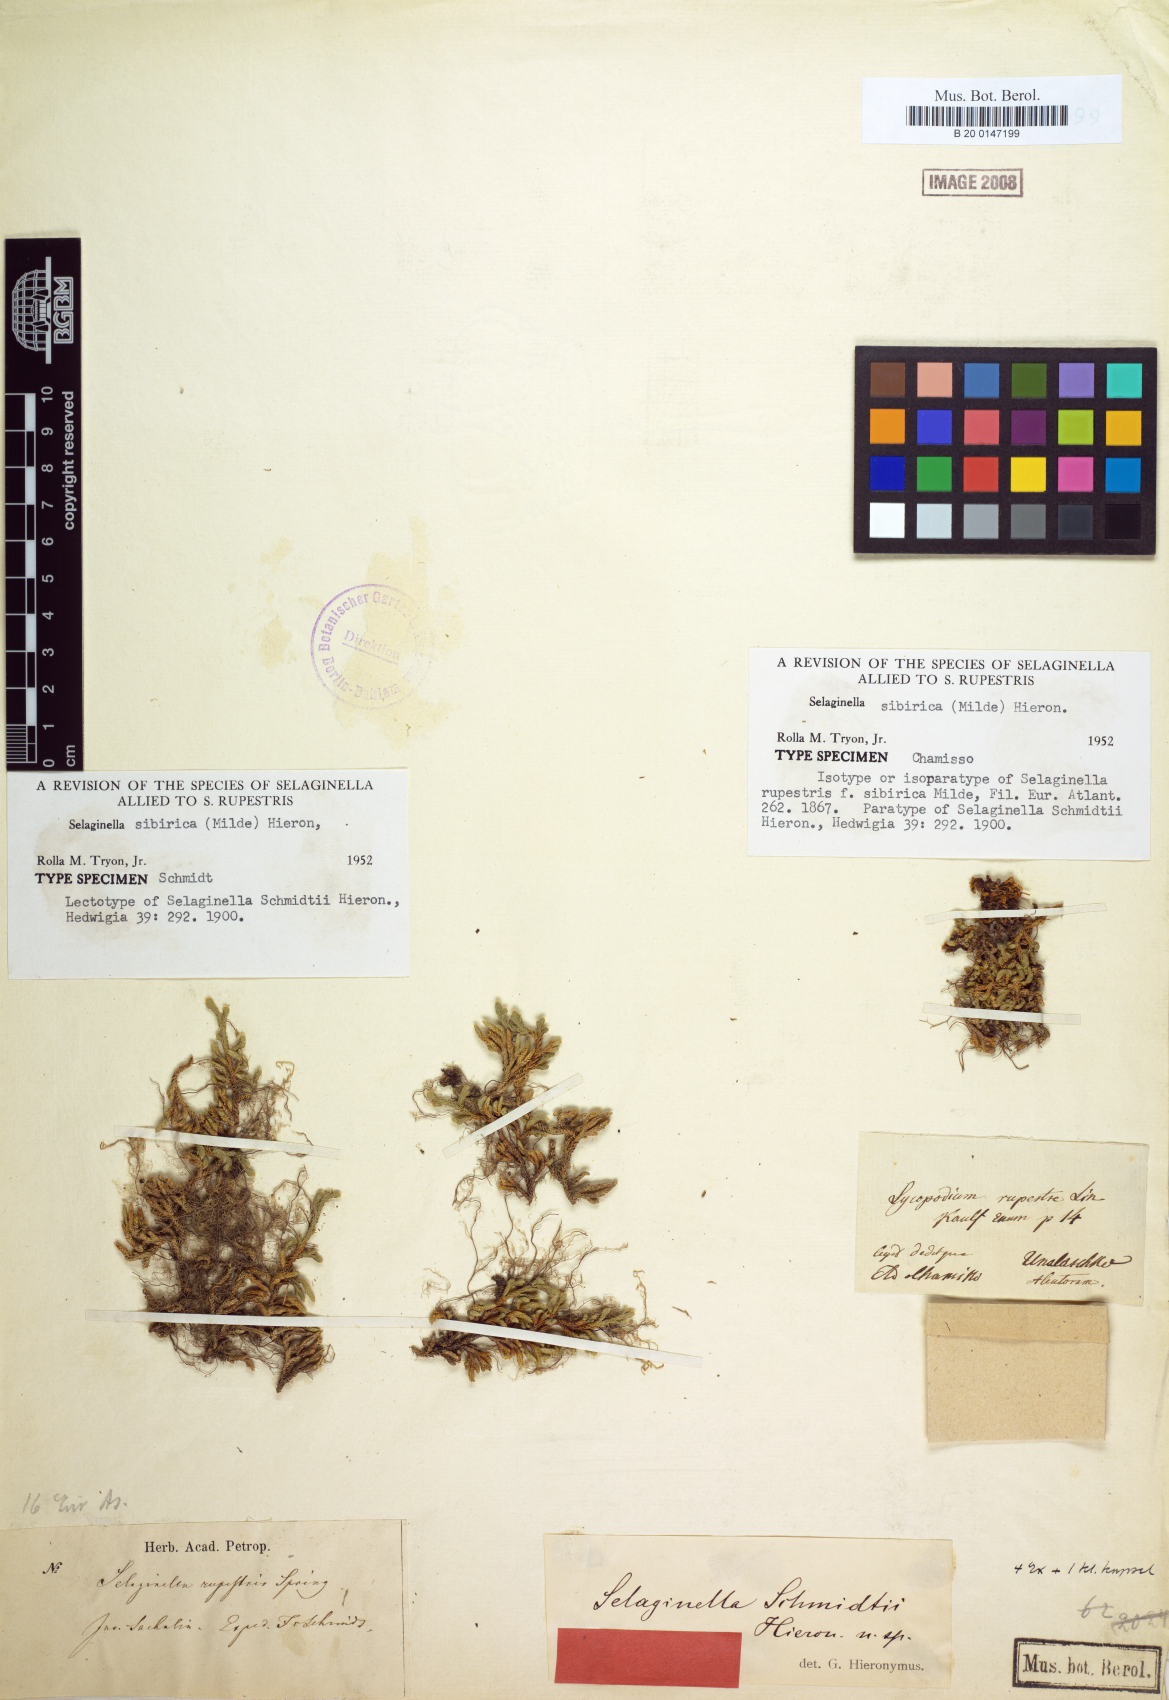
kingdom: Plantae
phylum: Tracheophyta
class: Lycopodiopsida
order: Selaginellales
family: Selaginellaceae
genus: Selaginella
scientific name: Selaginella sibirica
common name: Siberian spikemoss
